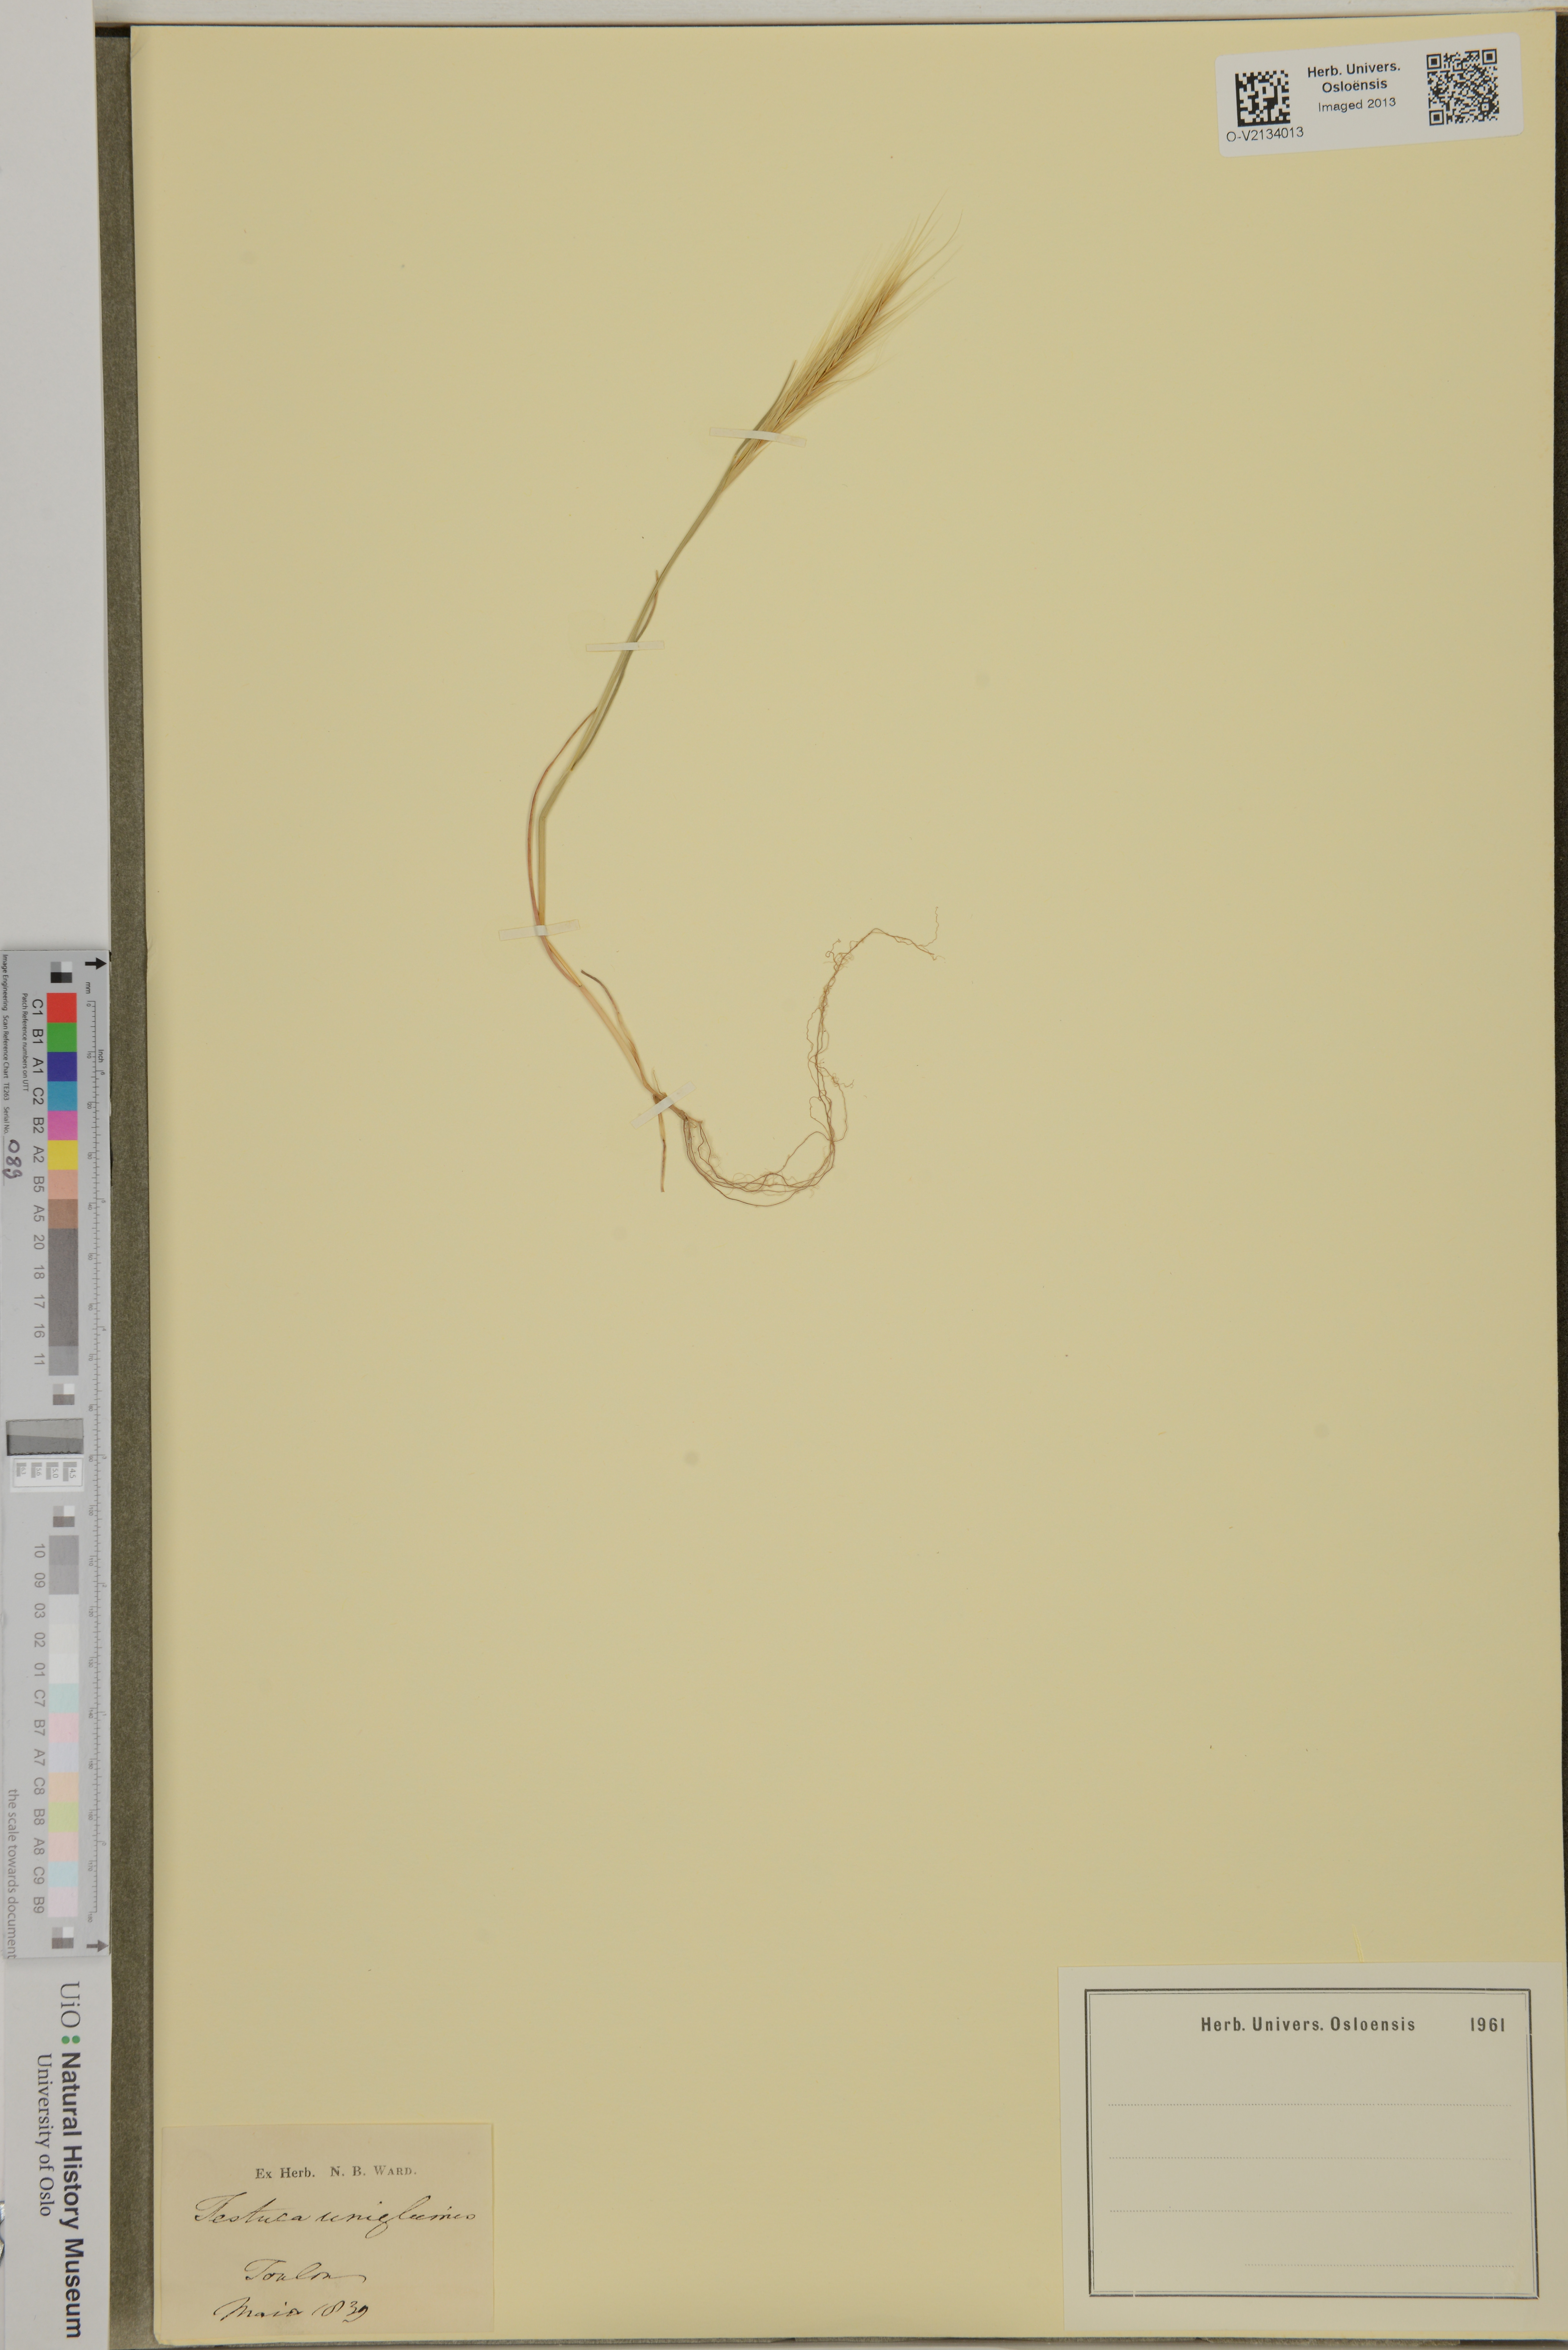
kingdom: Plantae
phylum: Tracheophyta
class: Liliopsida
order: Poales
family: Poaceae
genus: Festuca
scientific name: Festuca bromoides
